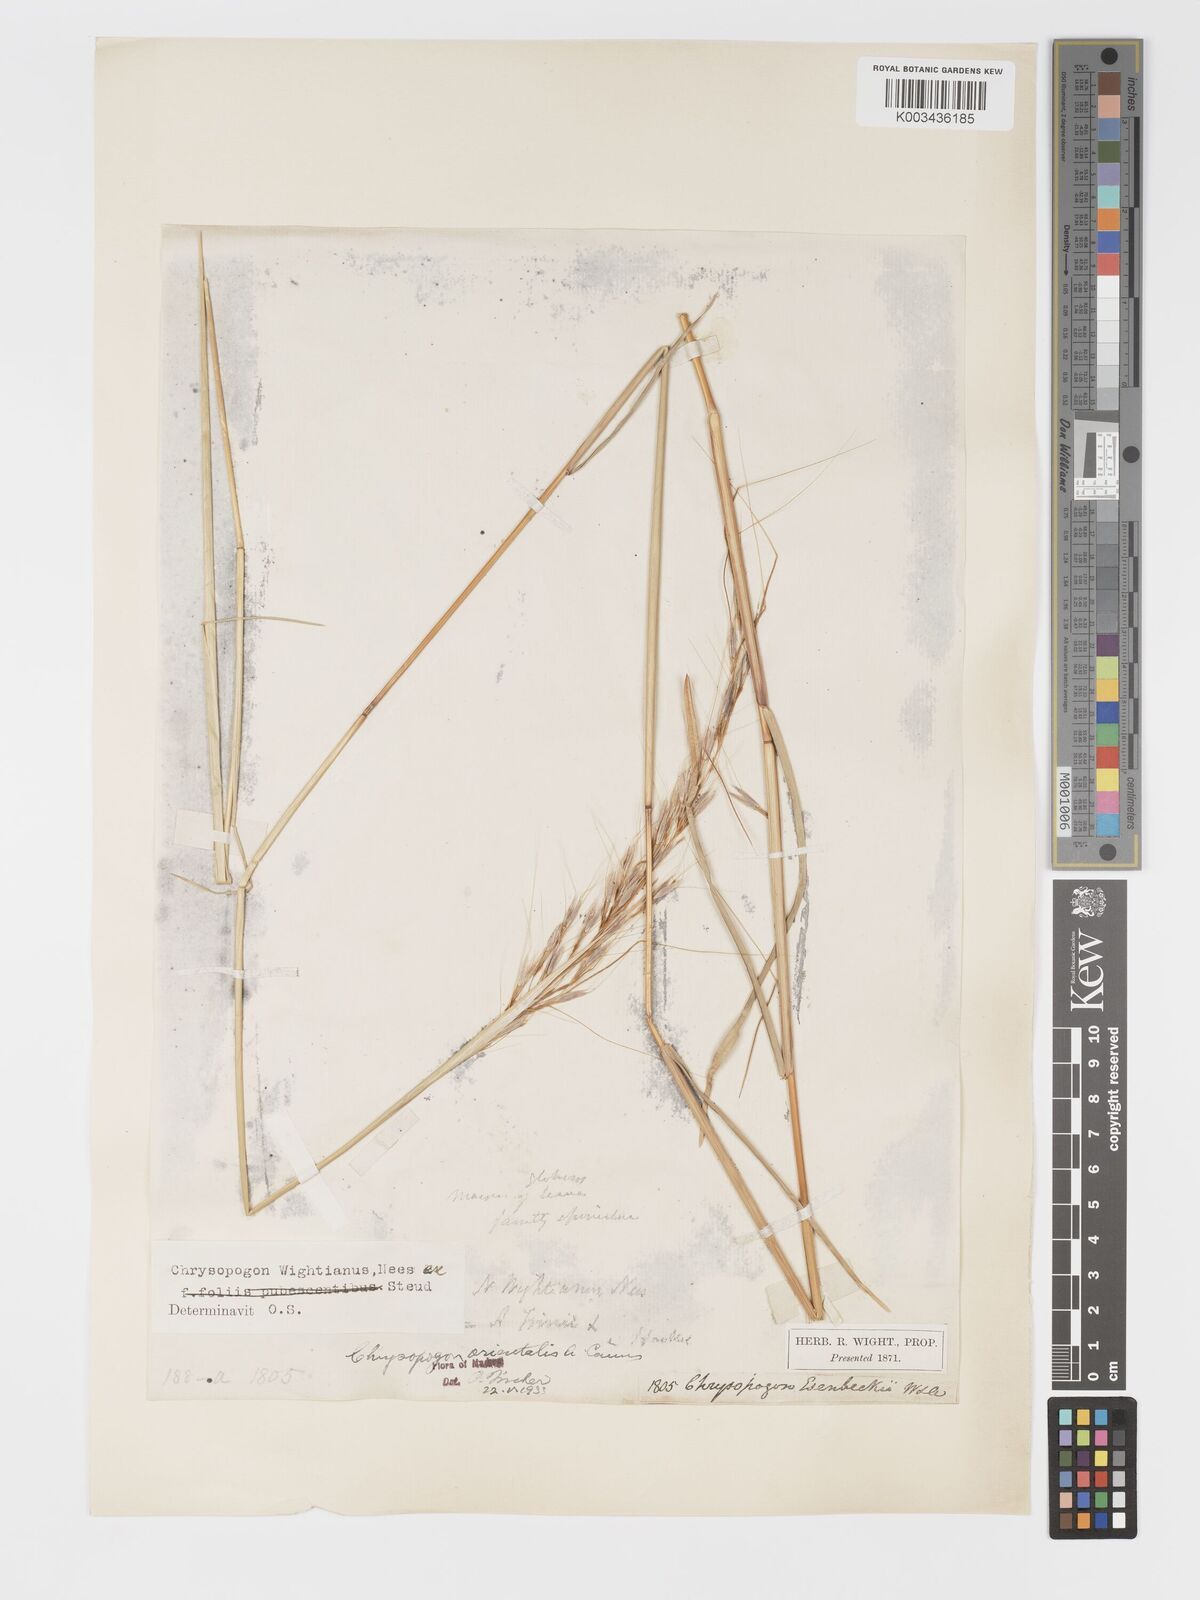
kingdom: Plantae
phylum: Tracheophyta
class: Liliopsida
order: Poales
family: Poaceae
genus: Chrysopogon
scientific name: Chrysopogon orientalis
